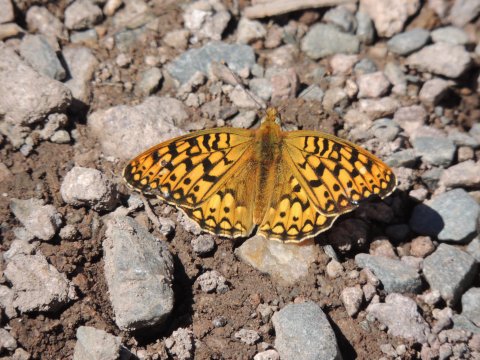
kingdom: Animalia
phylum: Arthropoda
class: Insecta
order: Lepidoptera
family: Nymphalidae
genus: Speyeria
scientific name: Speyeria callippe
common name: Callippe Fritillary
